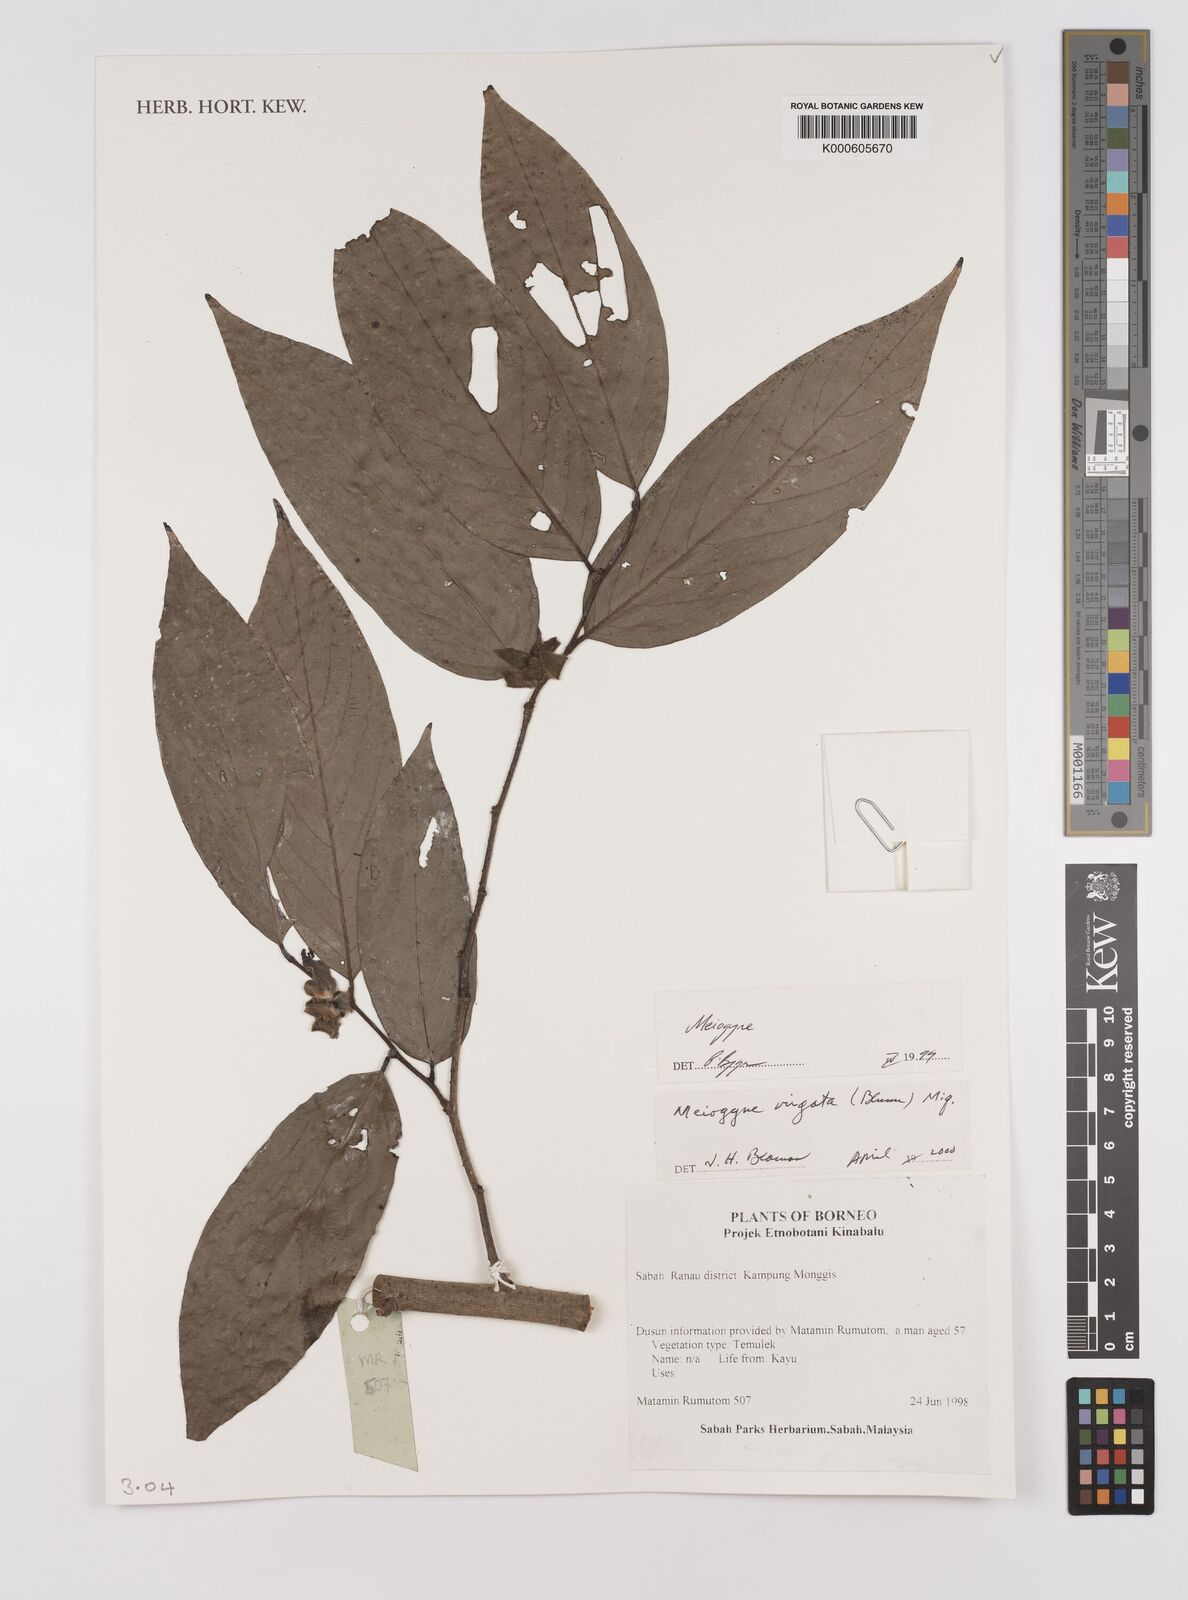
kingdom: Plantae
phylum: Tracheophyta
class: Magnoliopsida
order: Magnoliales
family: Annonaceae
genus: Meiogyne
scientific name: Meiogyne virgata
